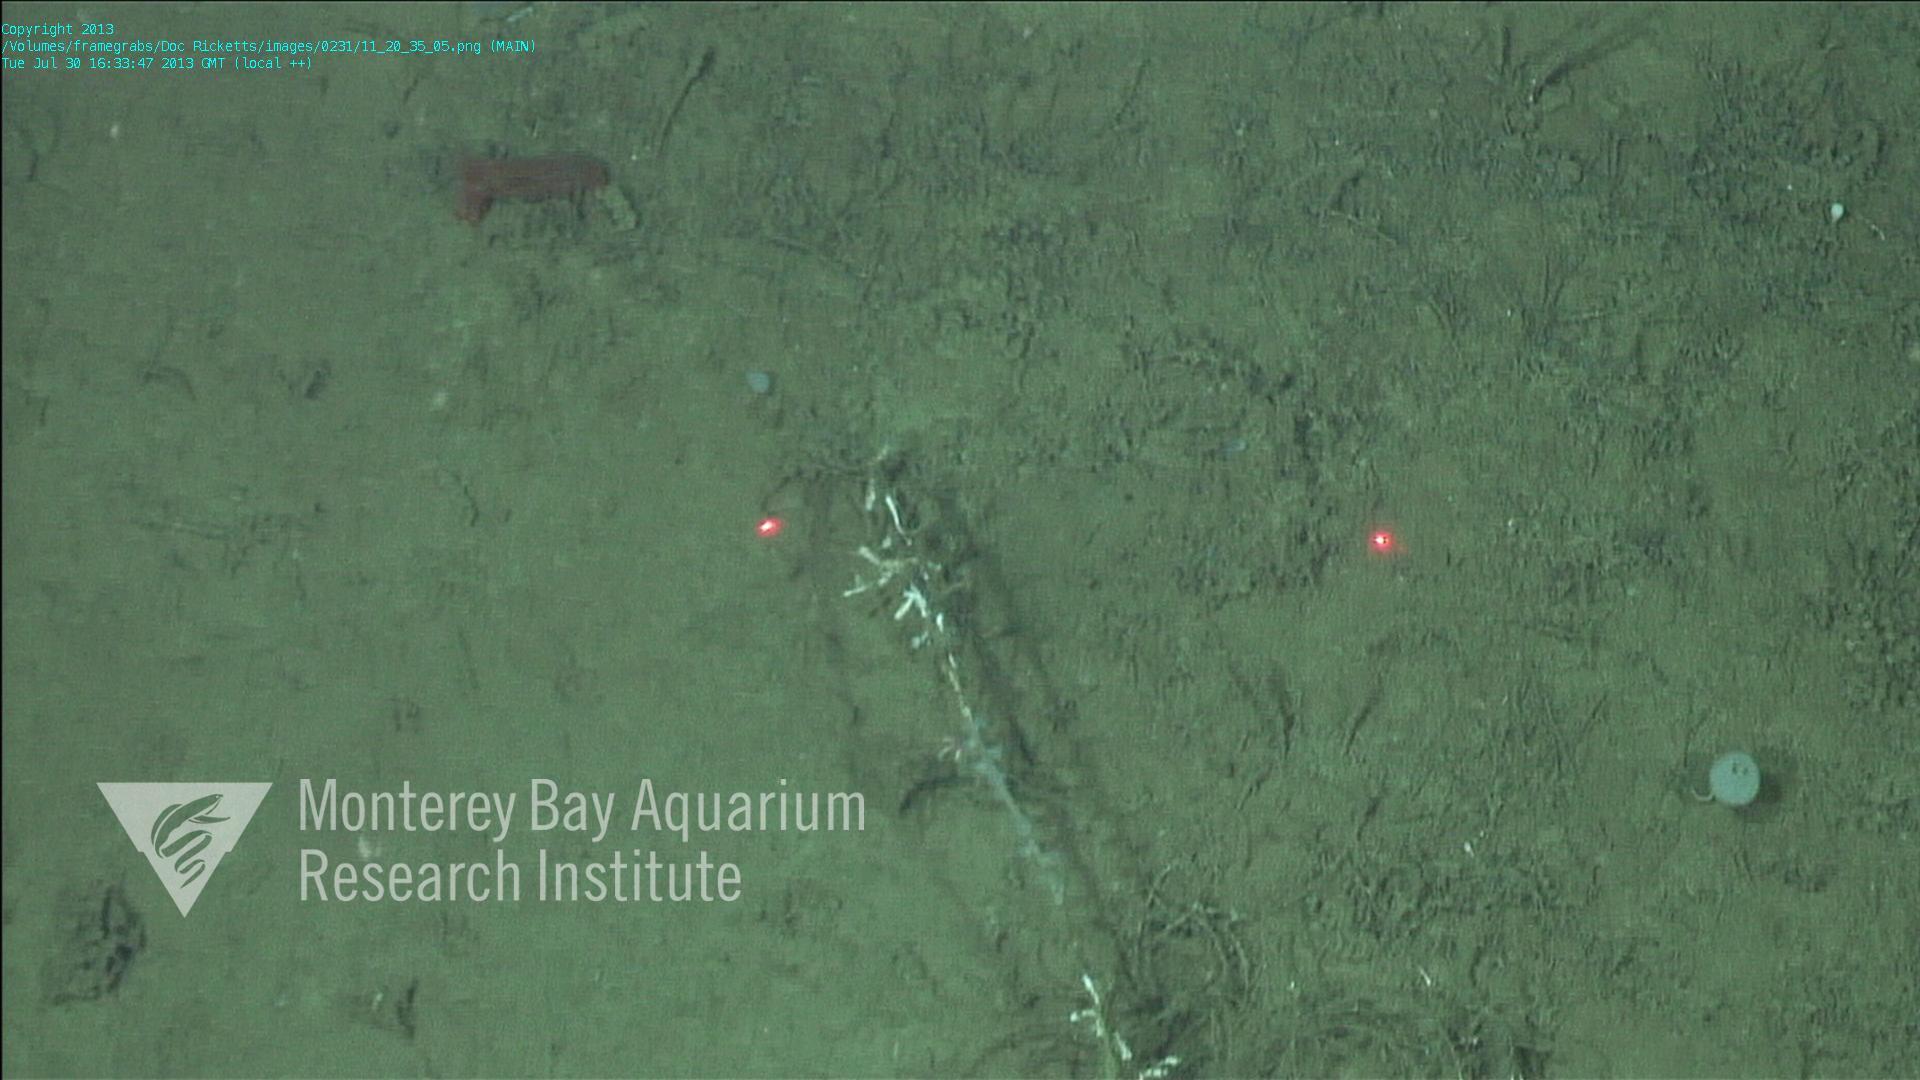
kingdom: Animalia
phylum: Porifera
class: Hexactinellida
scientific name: Hexactinellida
